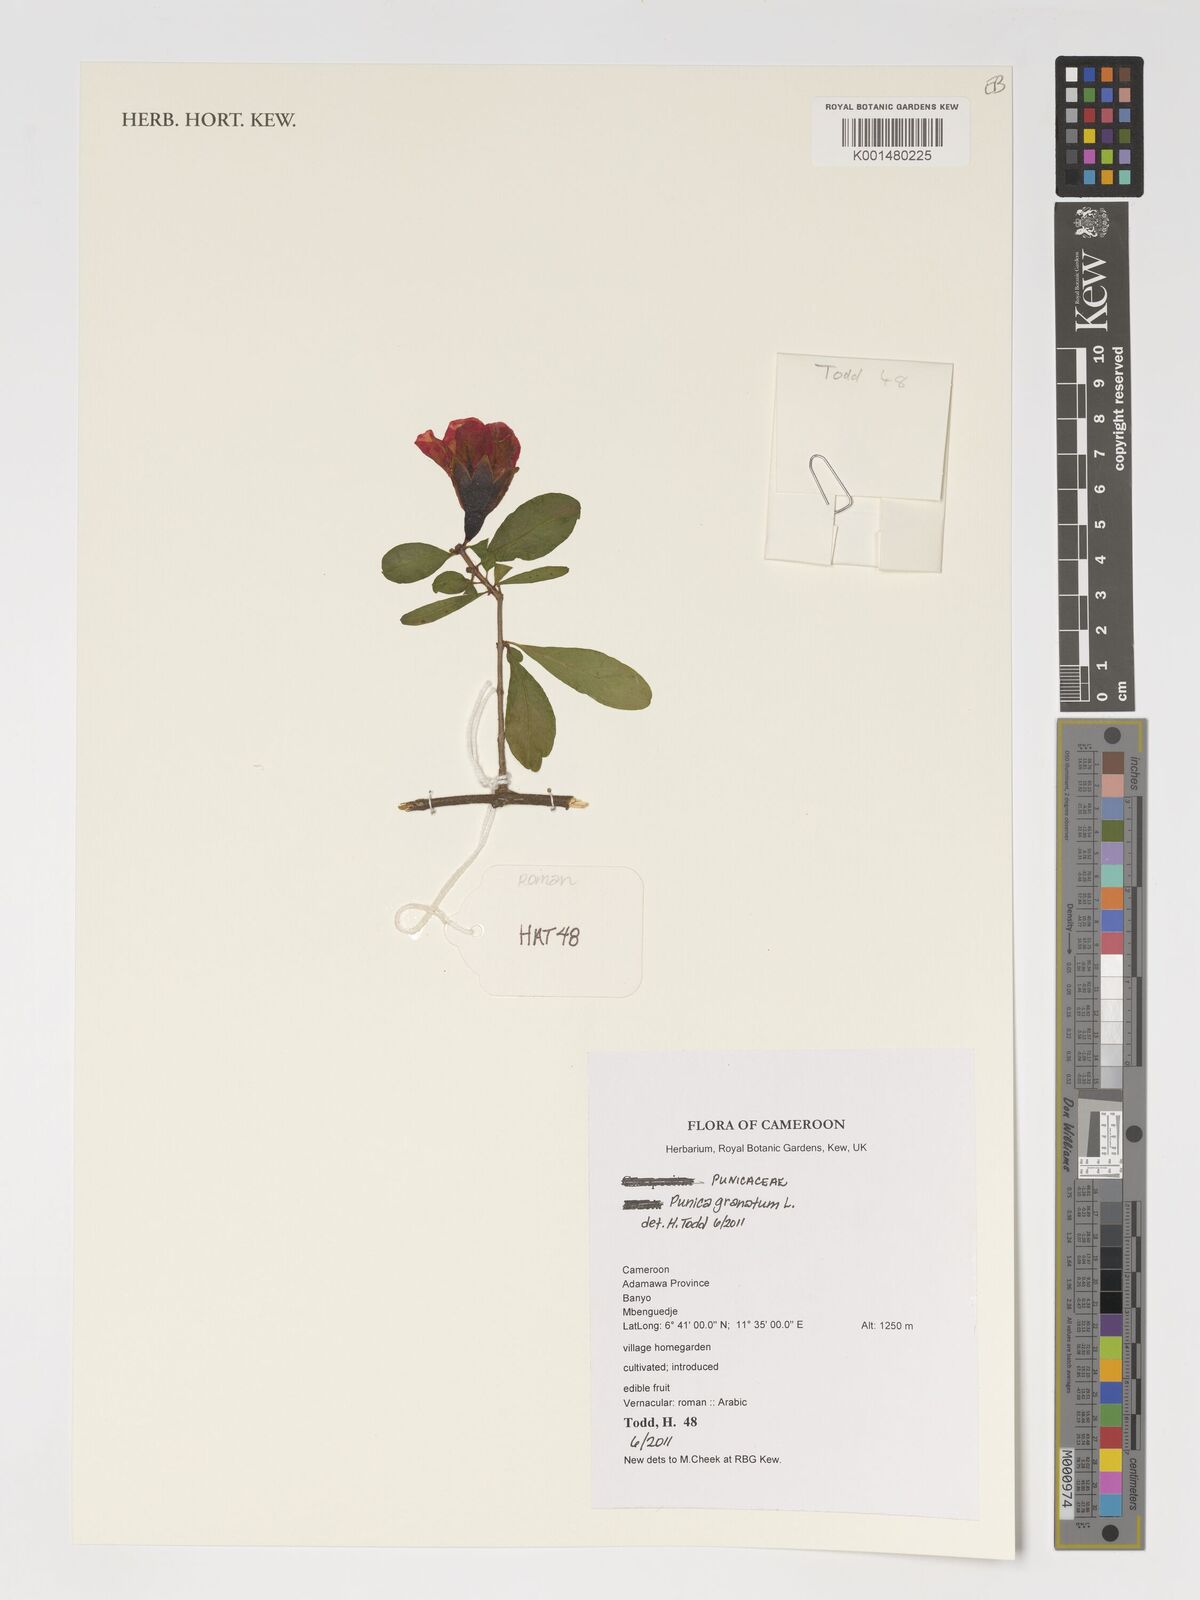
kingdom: Plantae
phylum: Tracheophyta
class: Magnoliopsida
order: Myrtales
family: Lythraceae
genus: Punica
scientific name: Punica granatum
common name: Pomegranate
